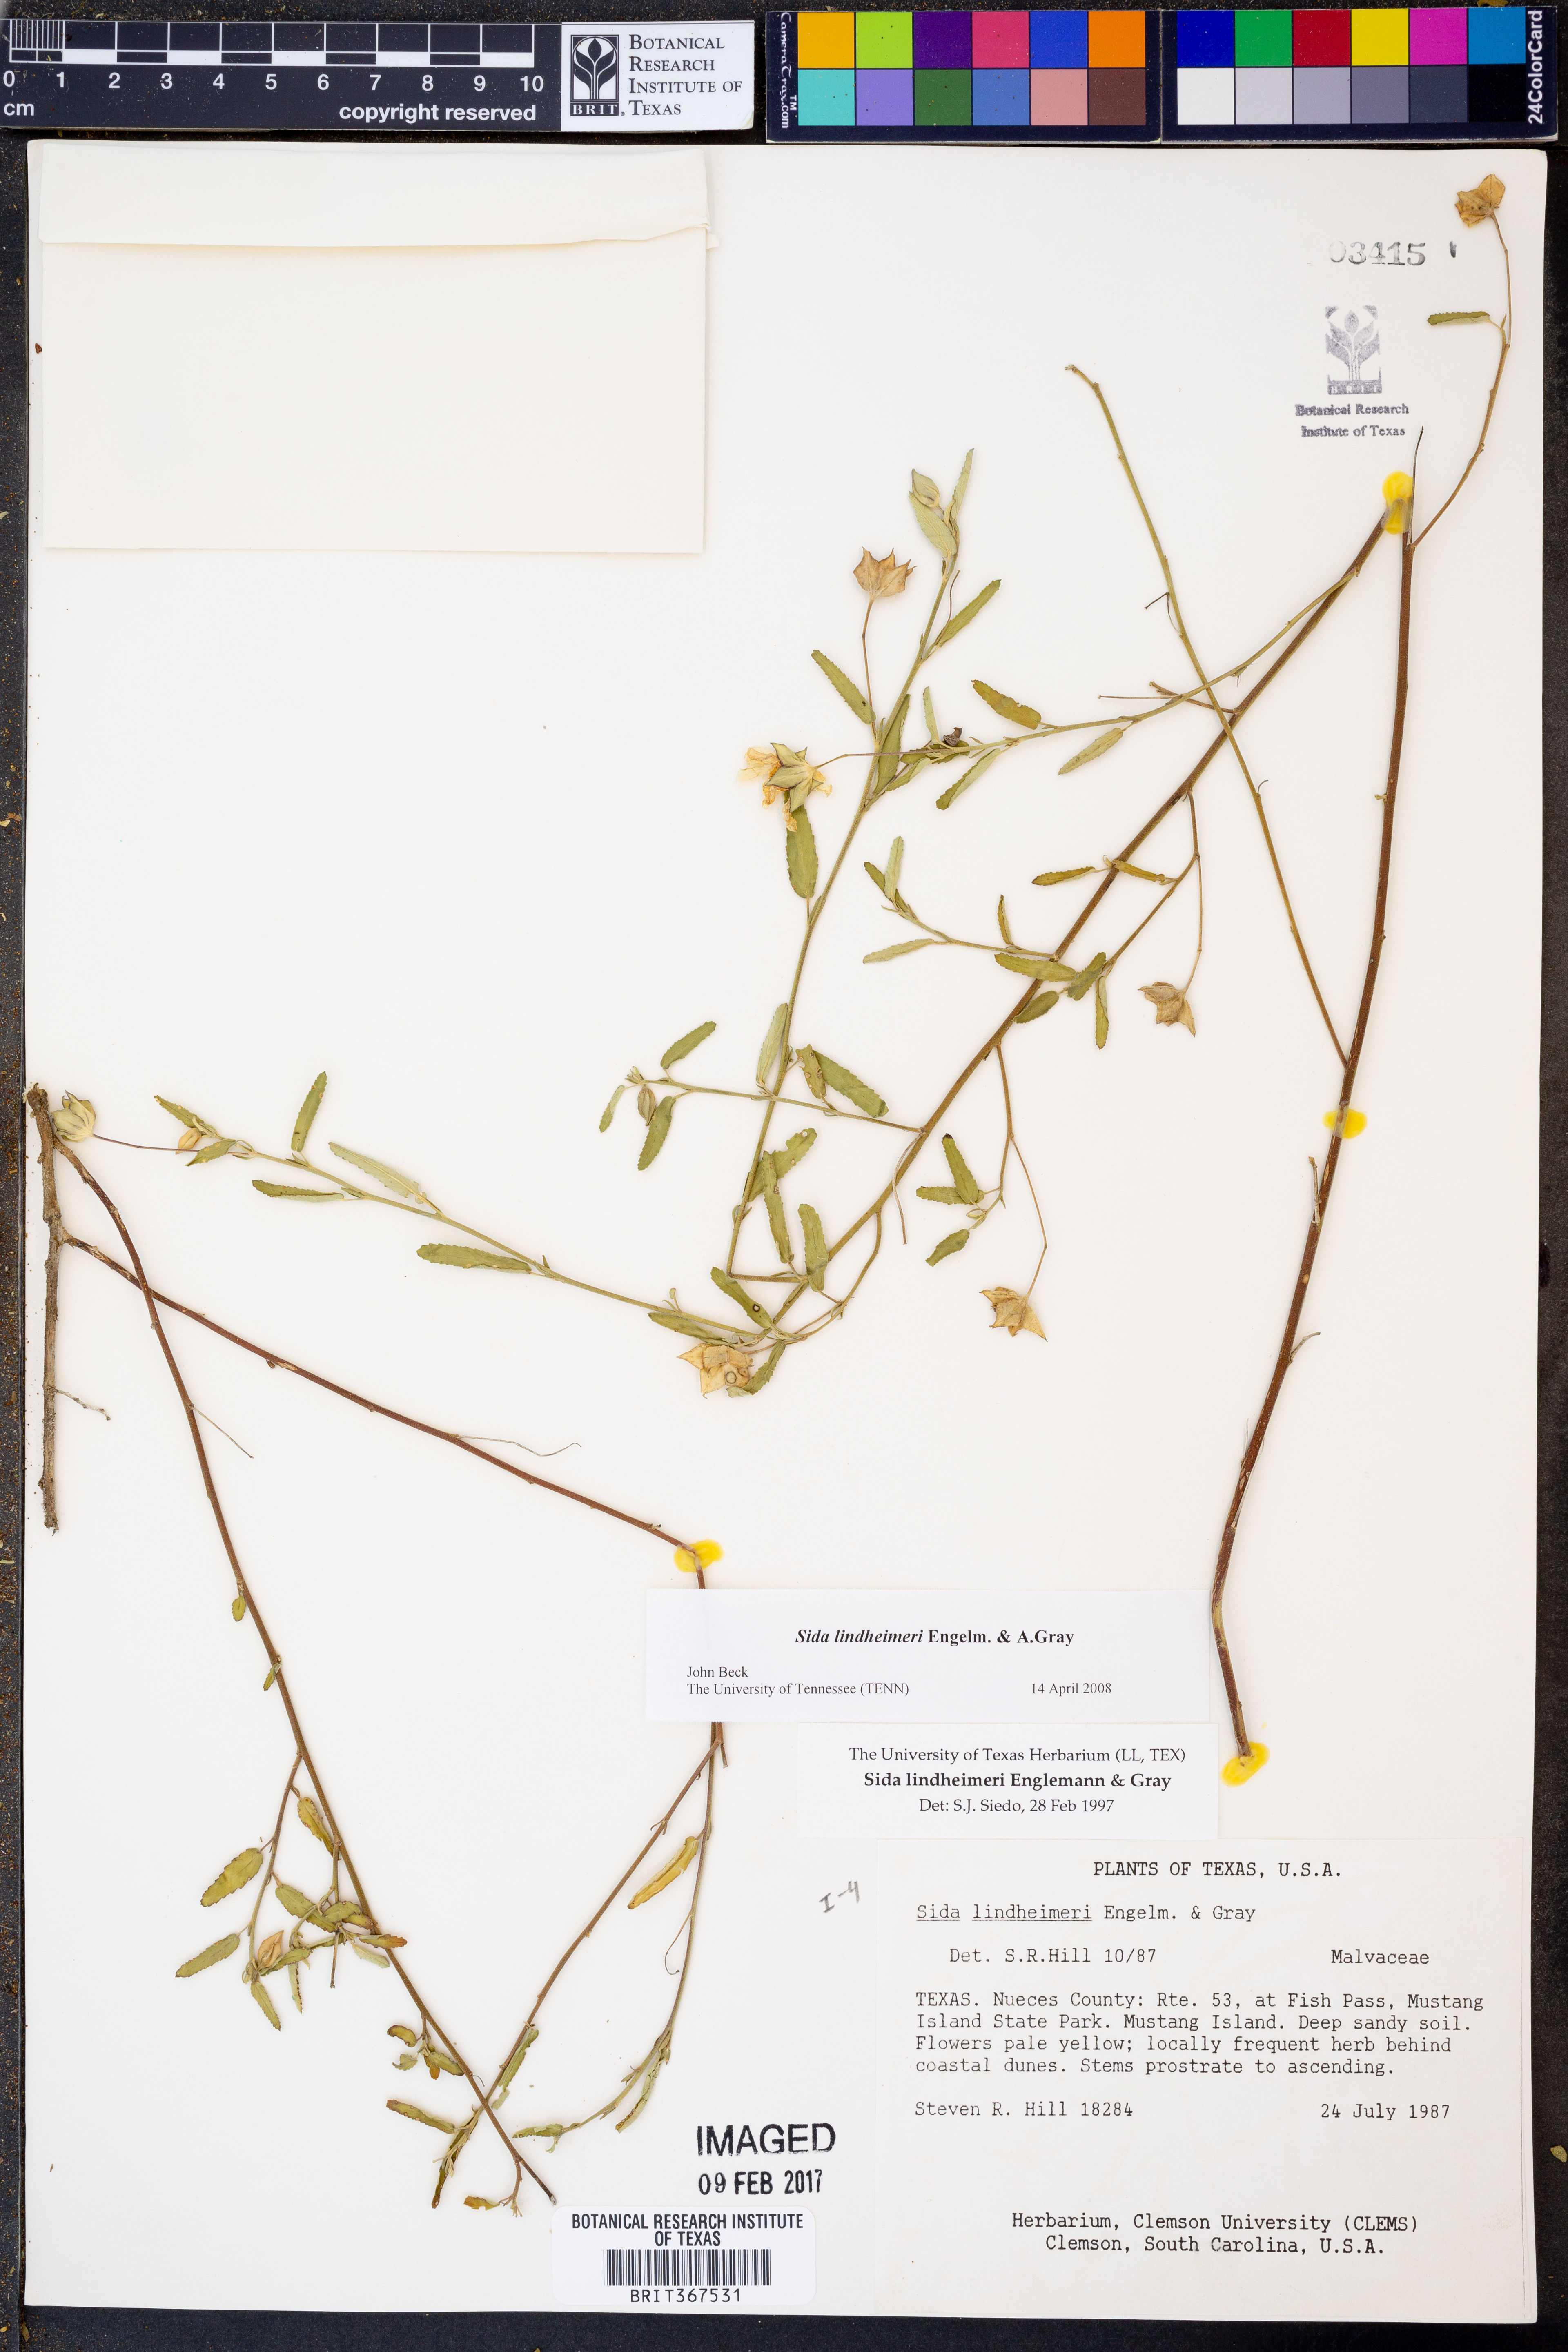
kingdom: Plantae
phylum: Tracheophyta
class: Magnoliopsida
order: Malvales
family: Malvaceae
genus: Sida
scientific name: Sida lindheimeri
